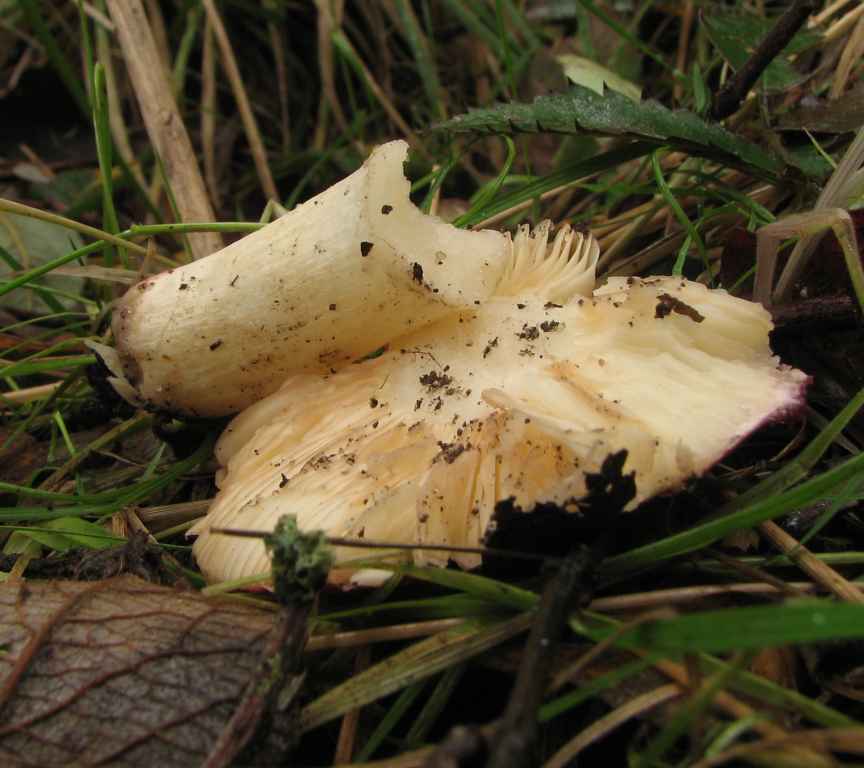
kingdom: Fungi
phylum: Basidiomycota
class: Agaricomycetes
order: Russulales
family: Russulaceae
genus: Russula
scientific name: Russula subrubens
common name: pile-skørhat
